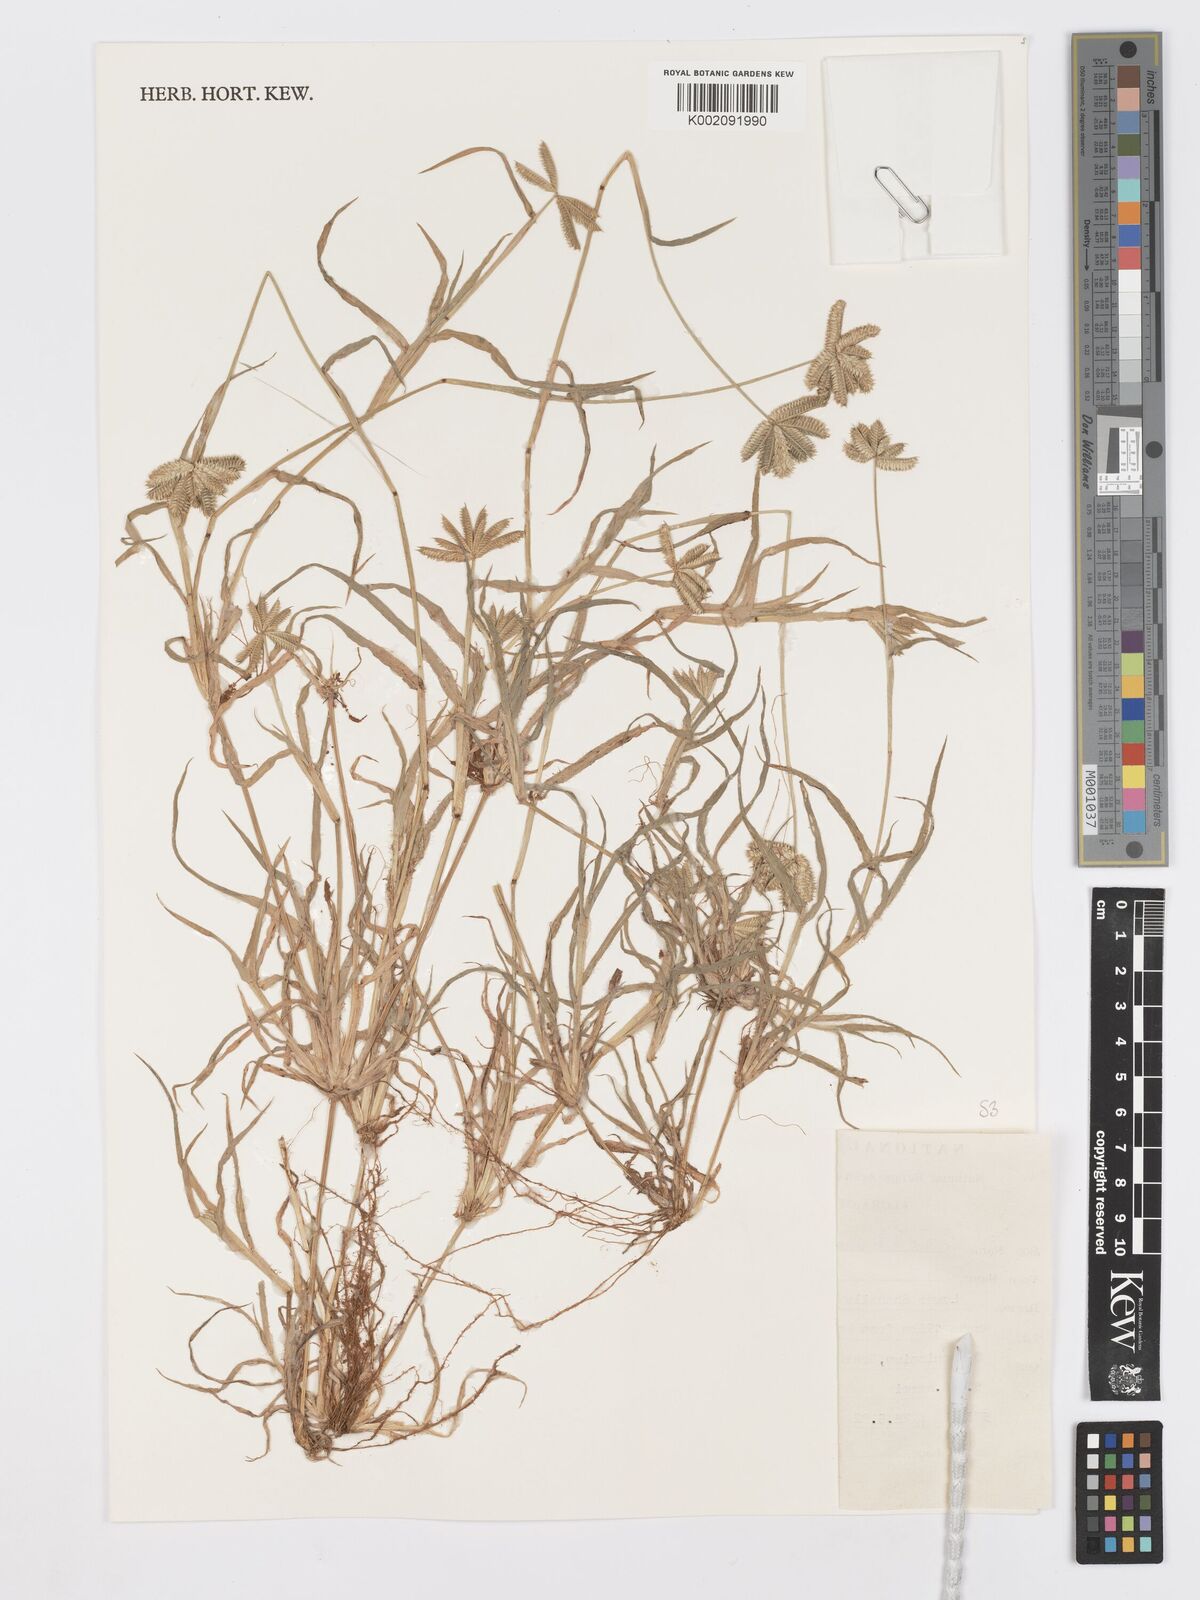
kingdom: Plantae
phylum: Tracheophyta
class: Liliopsida
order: Poales
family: Poaceae
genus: Dactyloctenium
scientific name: Dactyloctenium aristatum
